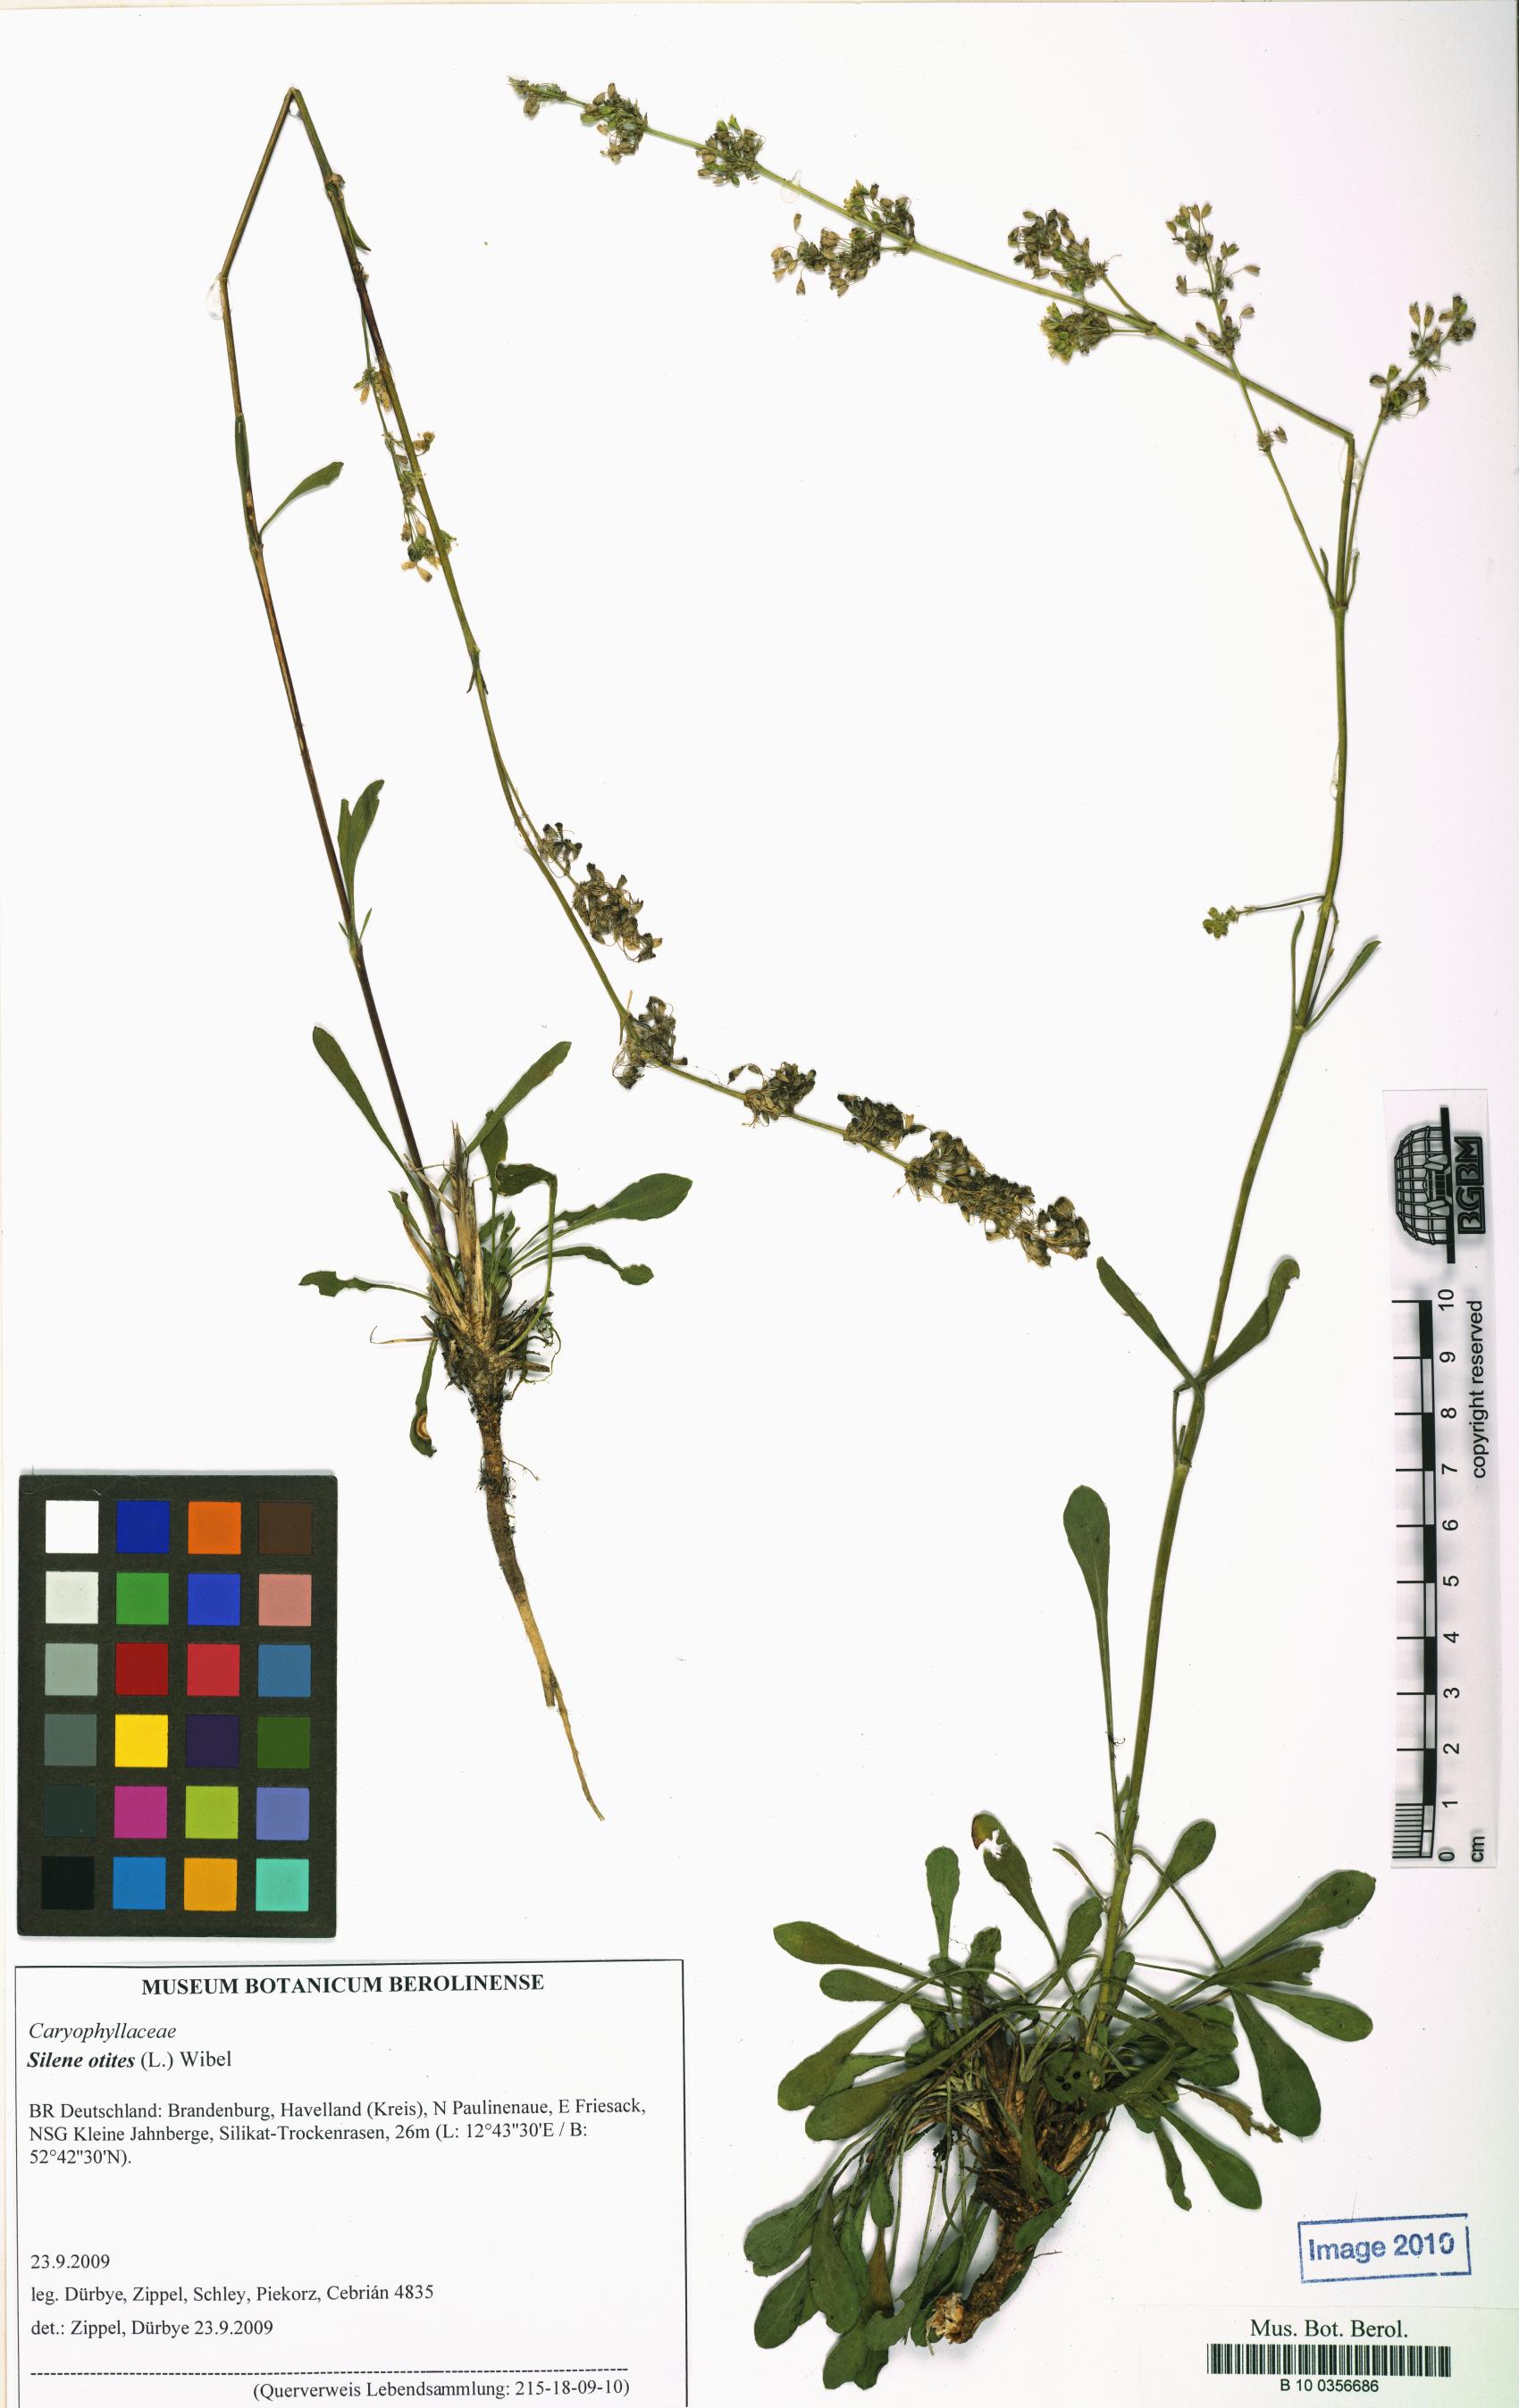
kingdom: Plantae
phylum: Tracheophyta
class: Magnoliopsida
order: Caryophyllales
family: Caryophyllaceae
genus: Silene
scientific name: Silene otites
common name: Spanish catchfly
